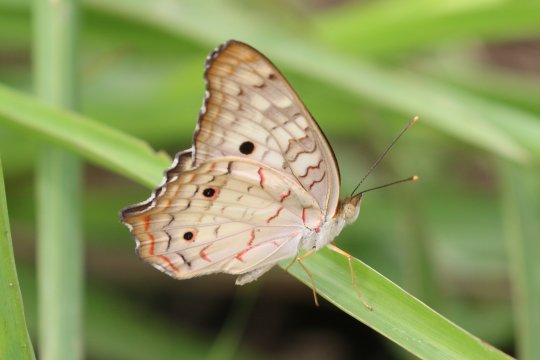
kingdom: Animalia
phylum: Arthropoda
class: Insecta
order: Lepidoptera
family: Nymphalidae
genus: Anartia
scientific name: Anartia jatrophae
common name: White Peacock
